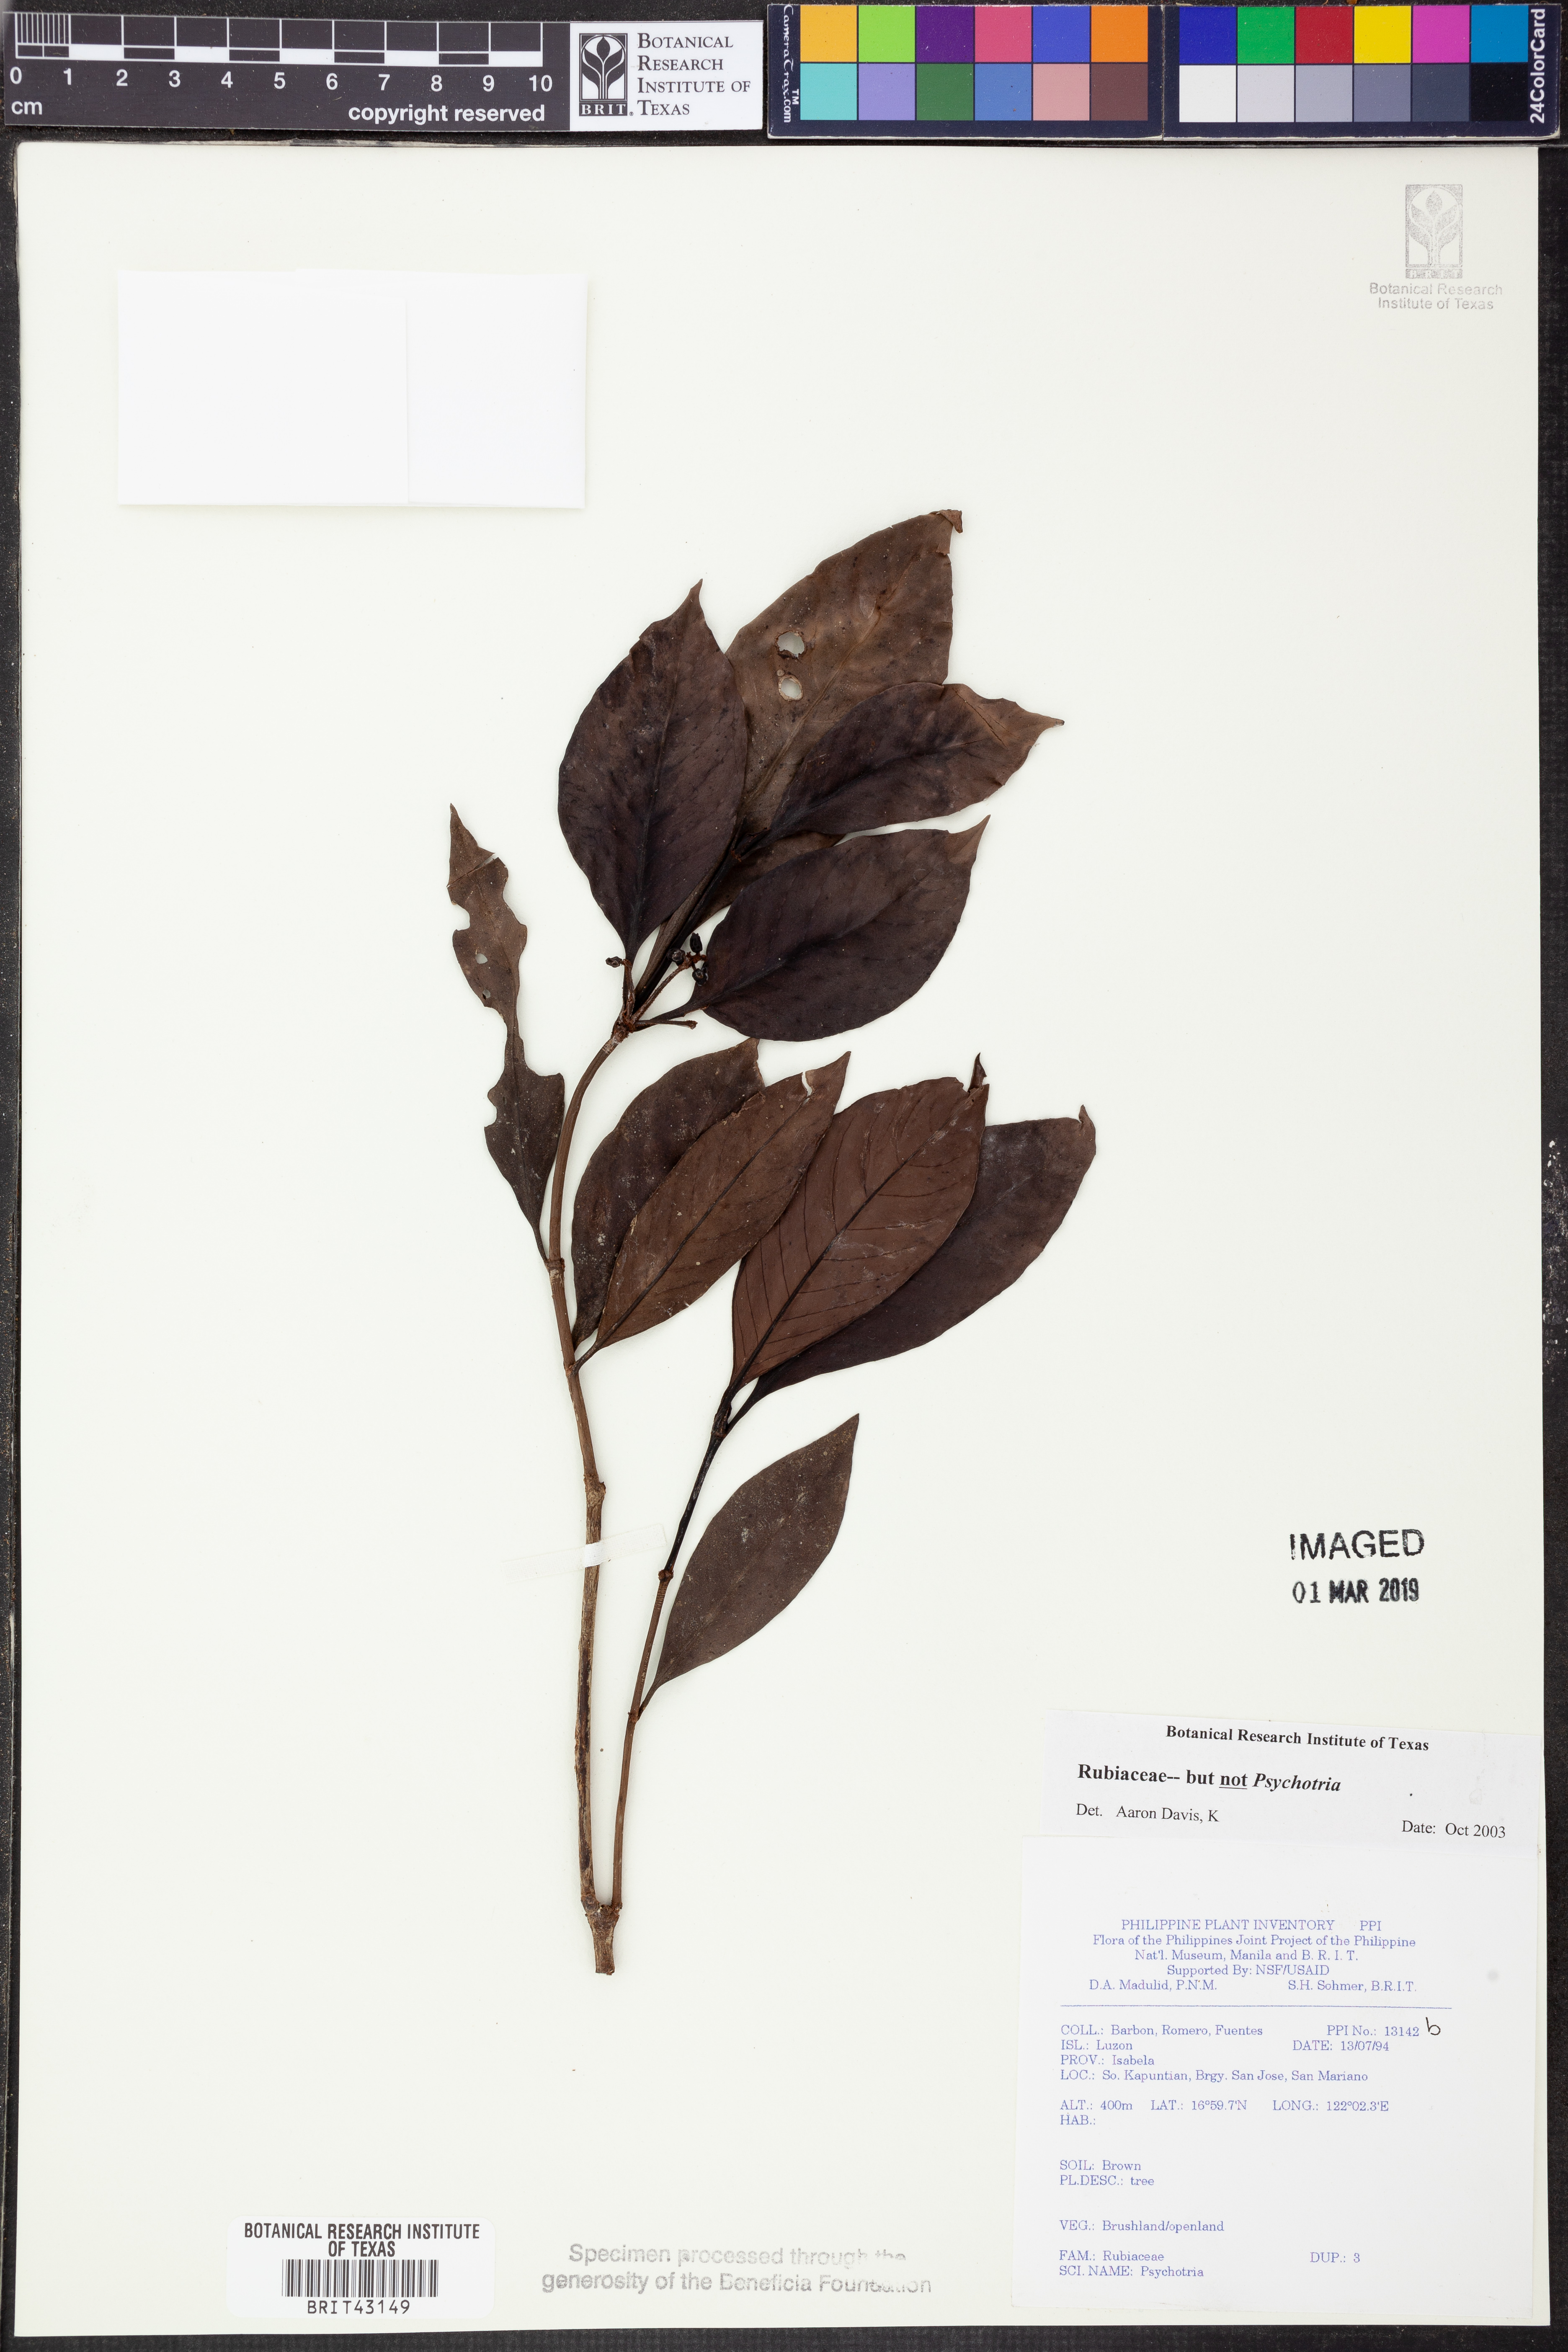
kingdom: Plantae
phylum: Tracheophyta
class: Magnoliopsida
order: Gentianales
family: Rubiaceae
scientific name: Rubiaceae
